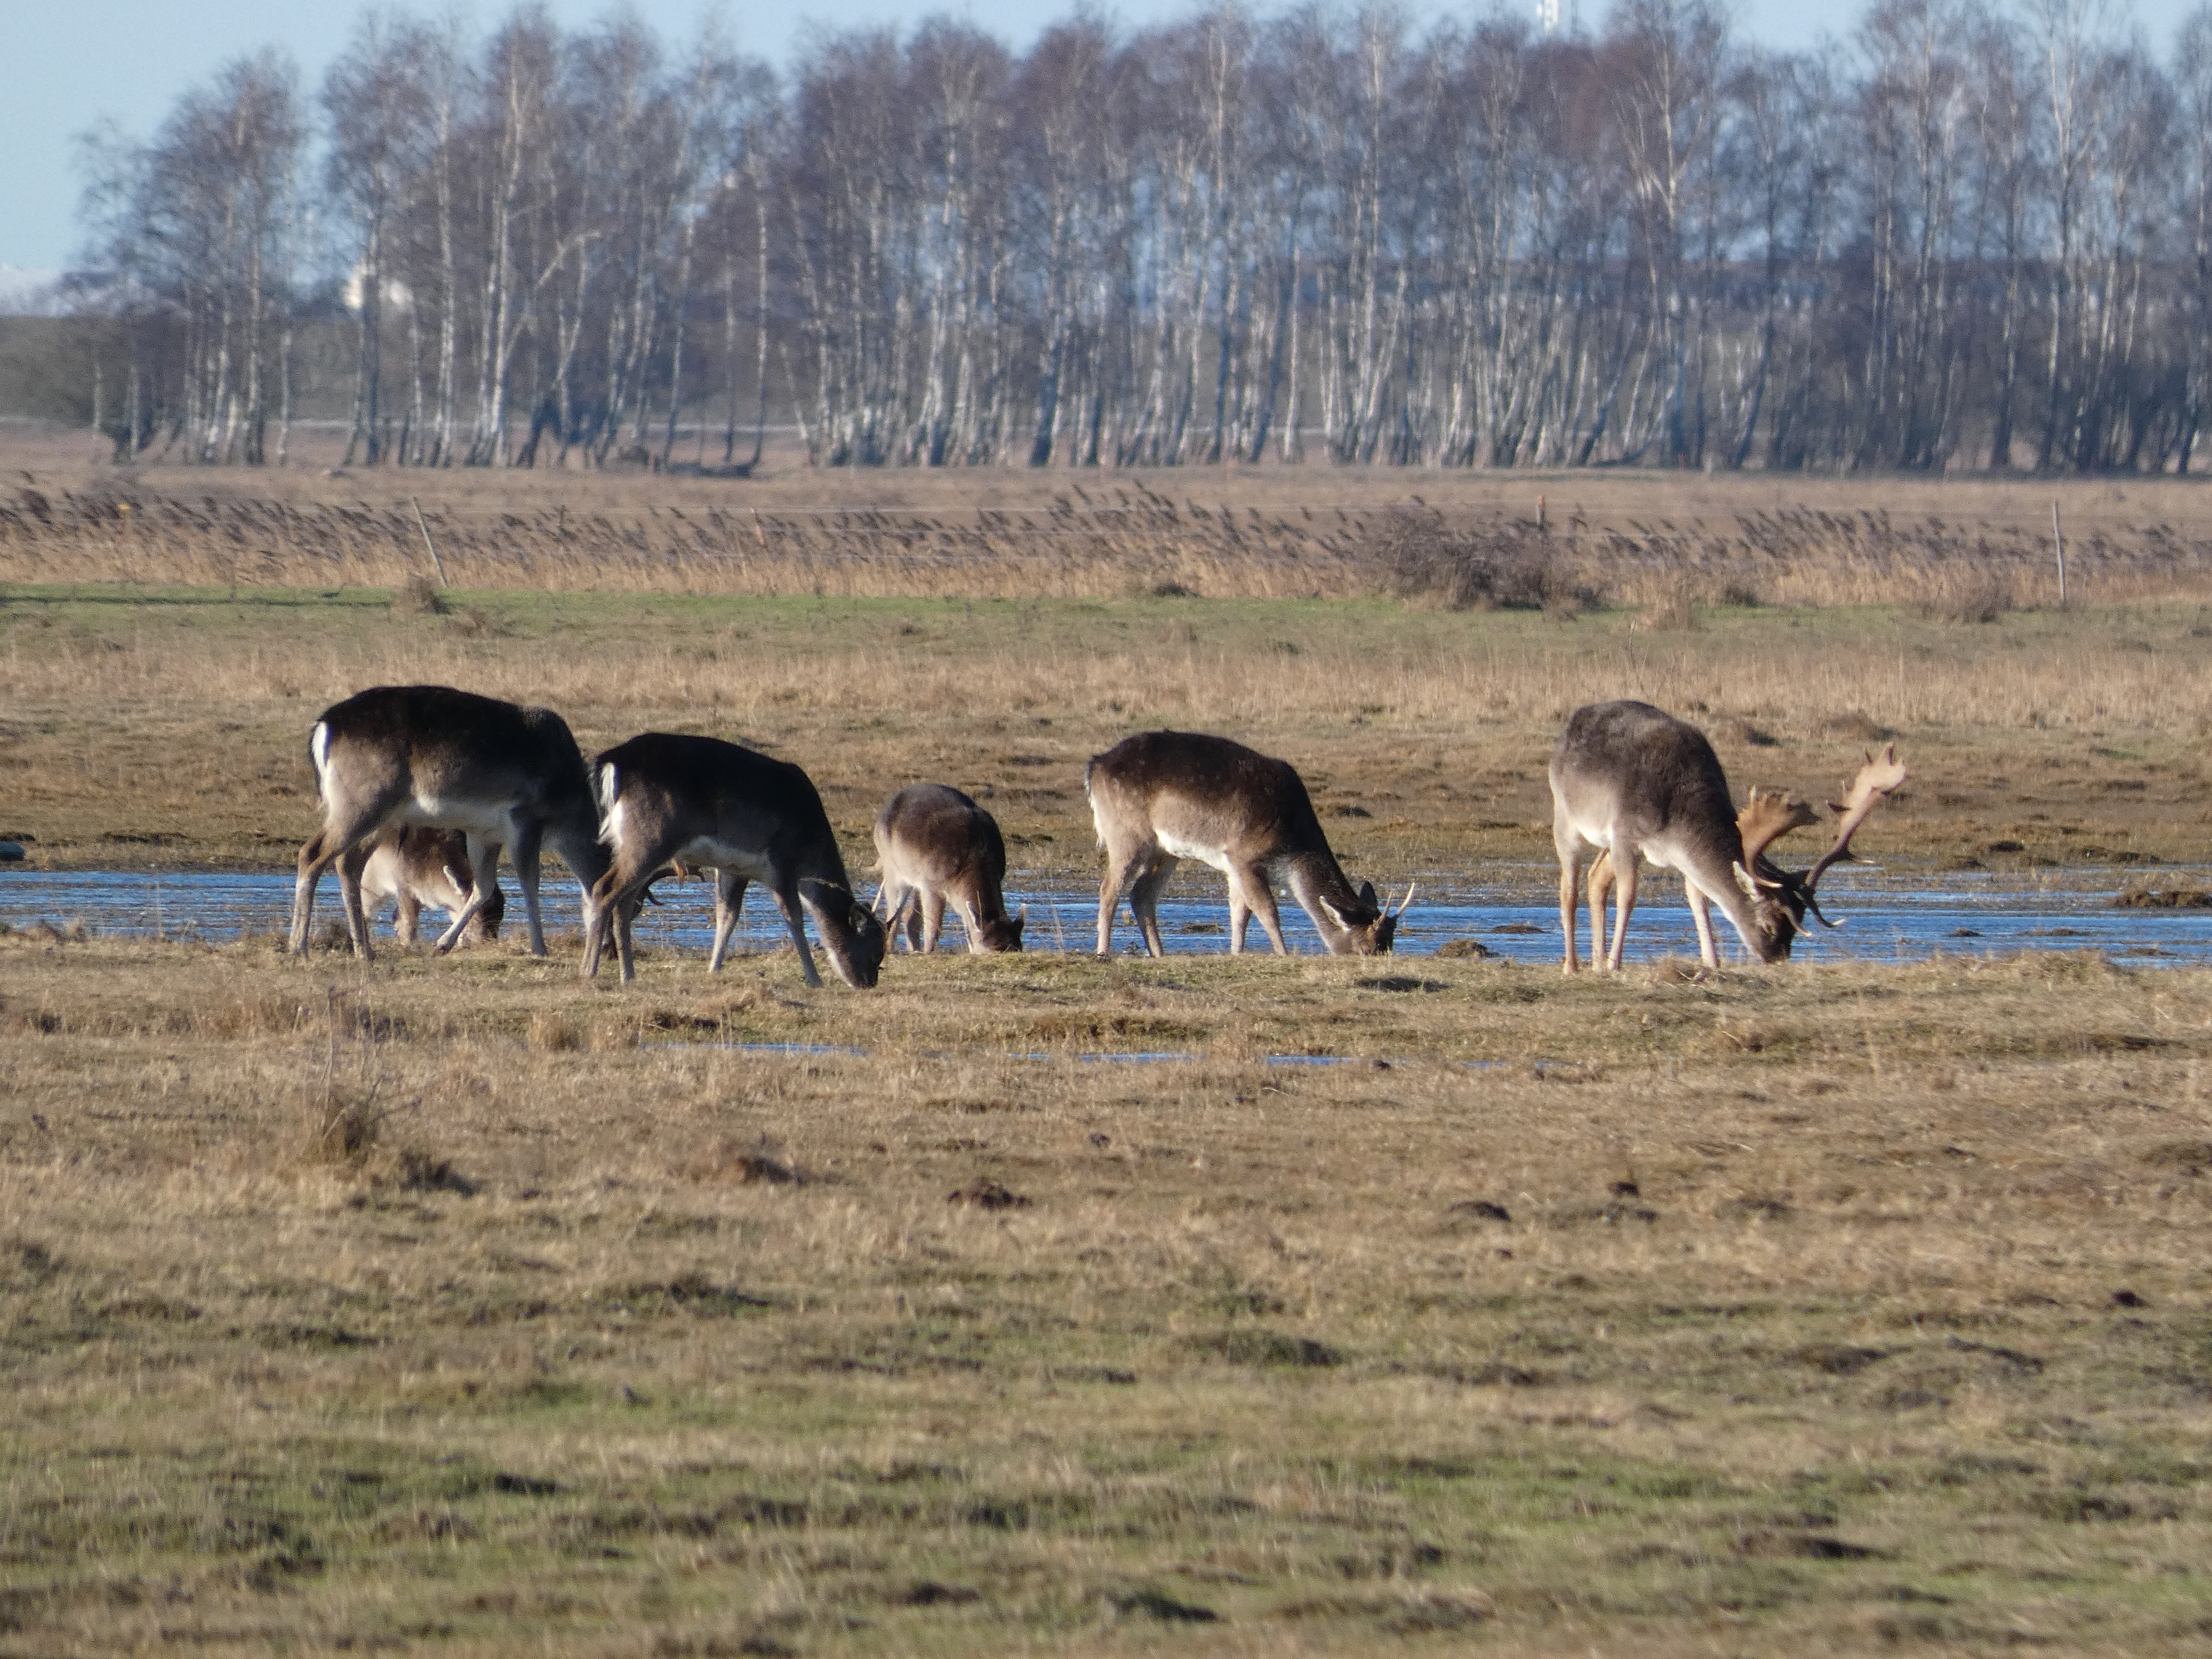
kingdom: Animalia
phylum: Chordata
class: Mammalia
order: Artiodactyla
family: Cervidae
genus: Dama
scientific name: Dama dama
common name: Dådyr
